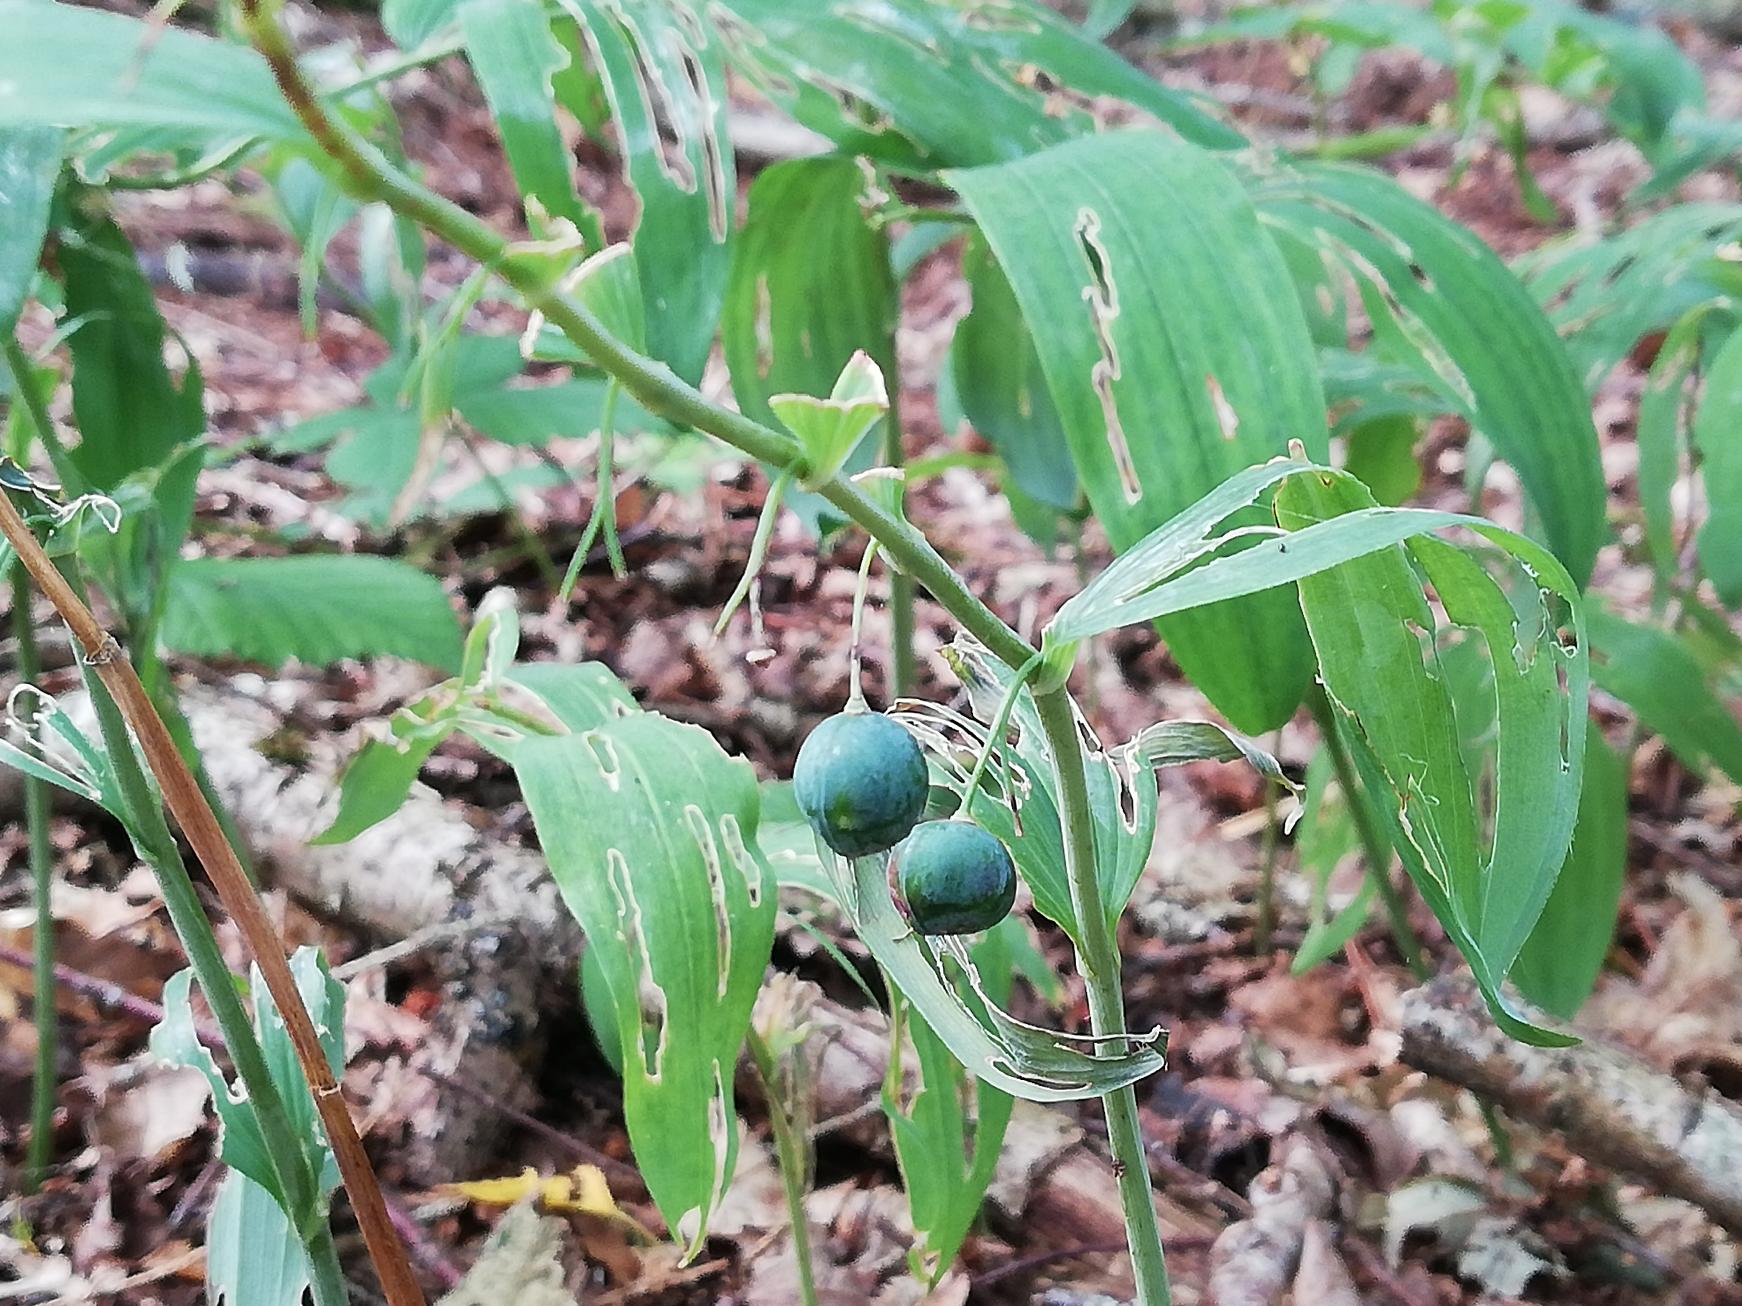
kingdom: Plantae
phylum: Tracheophyta
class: Liliopsida
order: Asparagales
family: Asparagaceae
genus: Polygonatum
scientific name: Polygonatum multiflorum
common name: Stor konval
